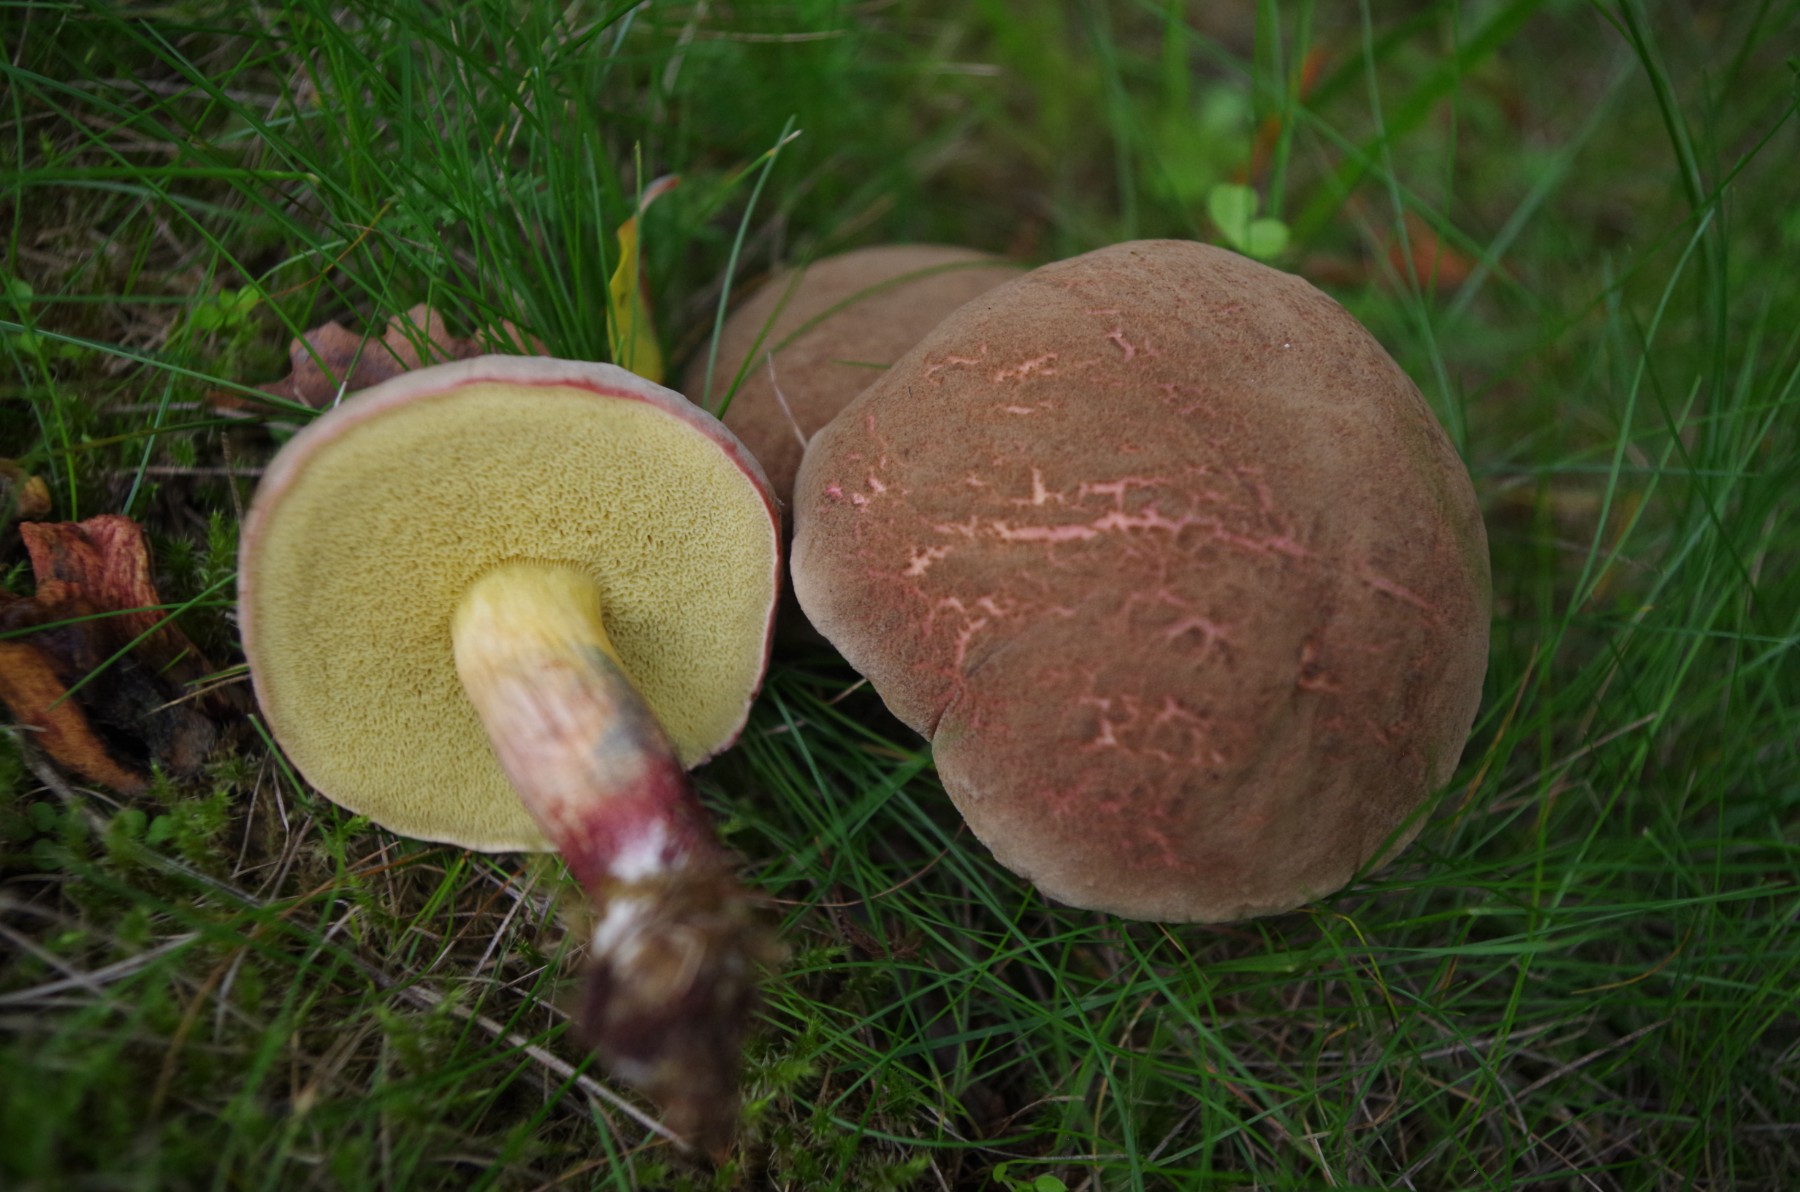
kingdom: Fungi
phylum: Basidiomycota
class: Agaricomycetes
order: Boletales
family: Boletaceae
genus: Xerocomellus
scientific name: Xerocomellus chrysenteron
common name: rødsprukken rørhat
